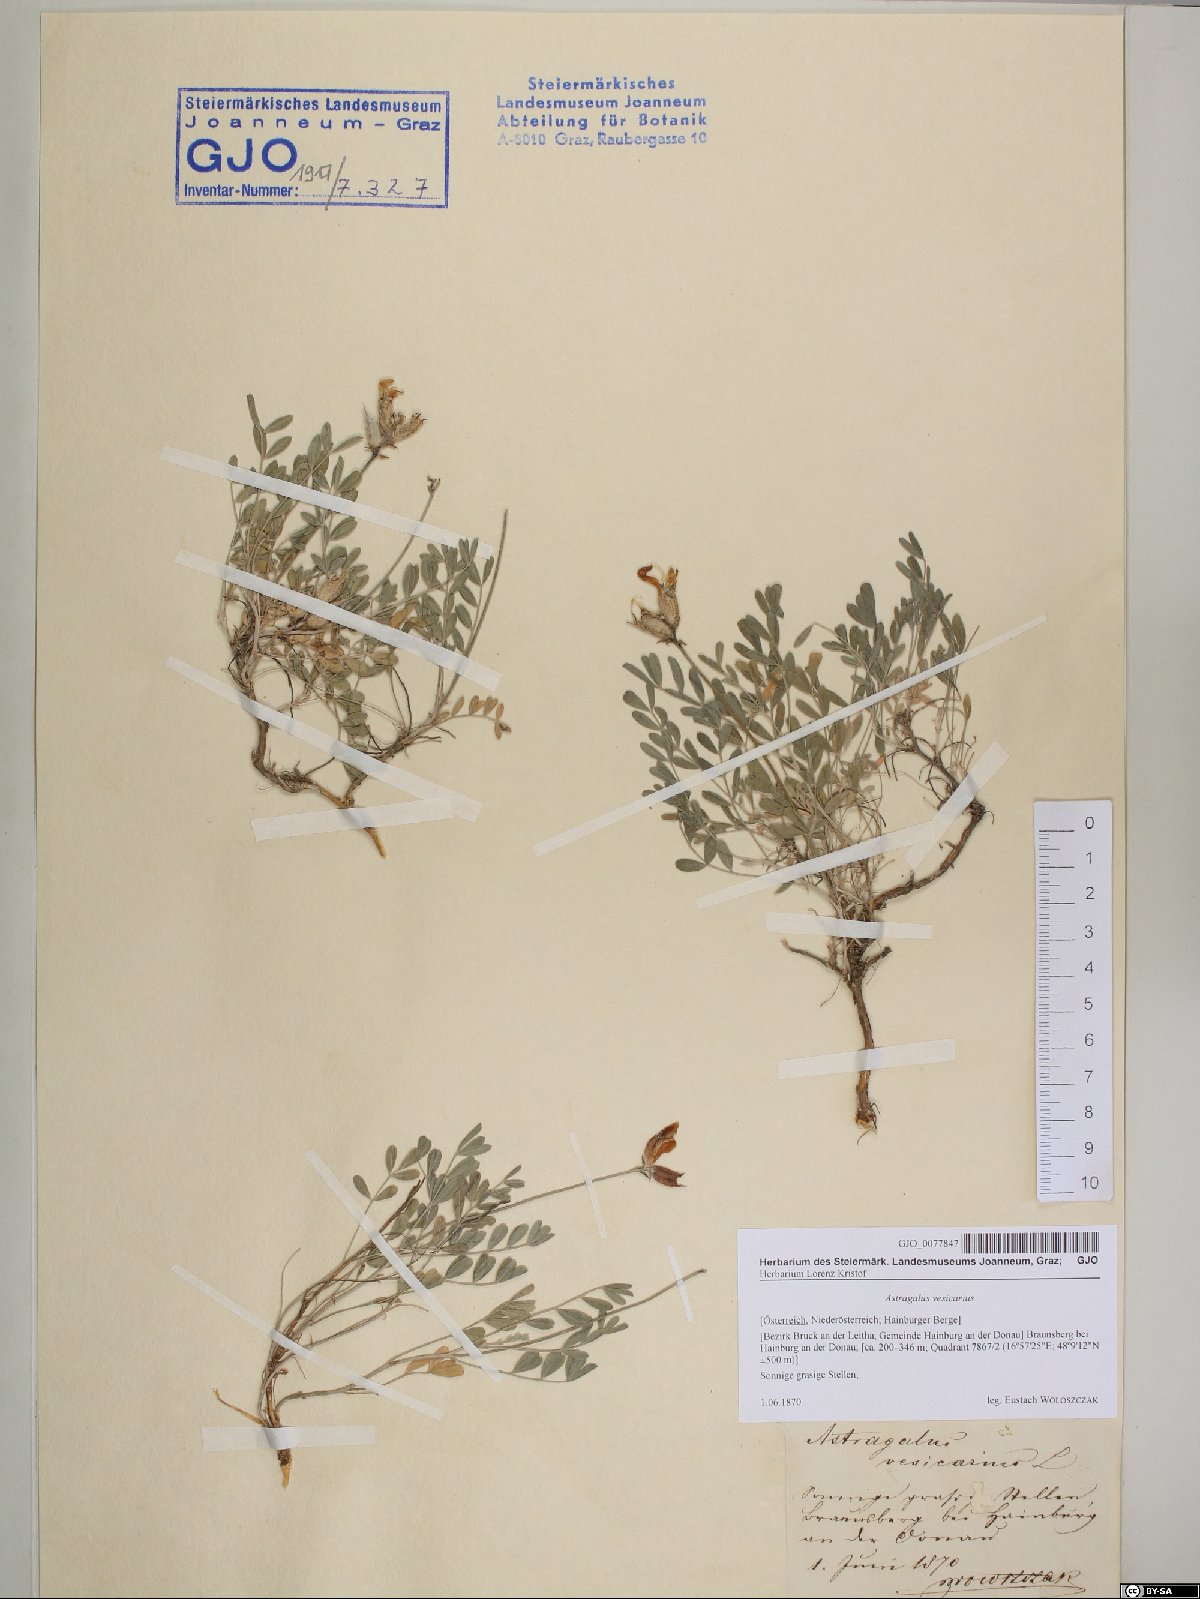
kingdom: Plantae
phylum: Tracheophyta
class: Magnoliopsida
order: Fabales
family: Fabaceae
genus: Astragalus
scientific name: Astragalus vesicarius
